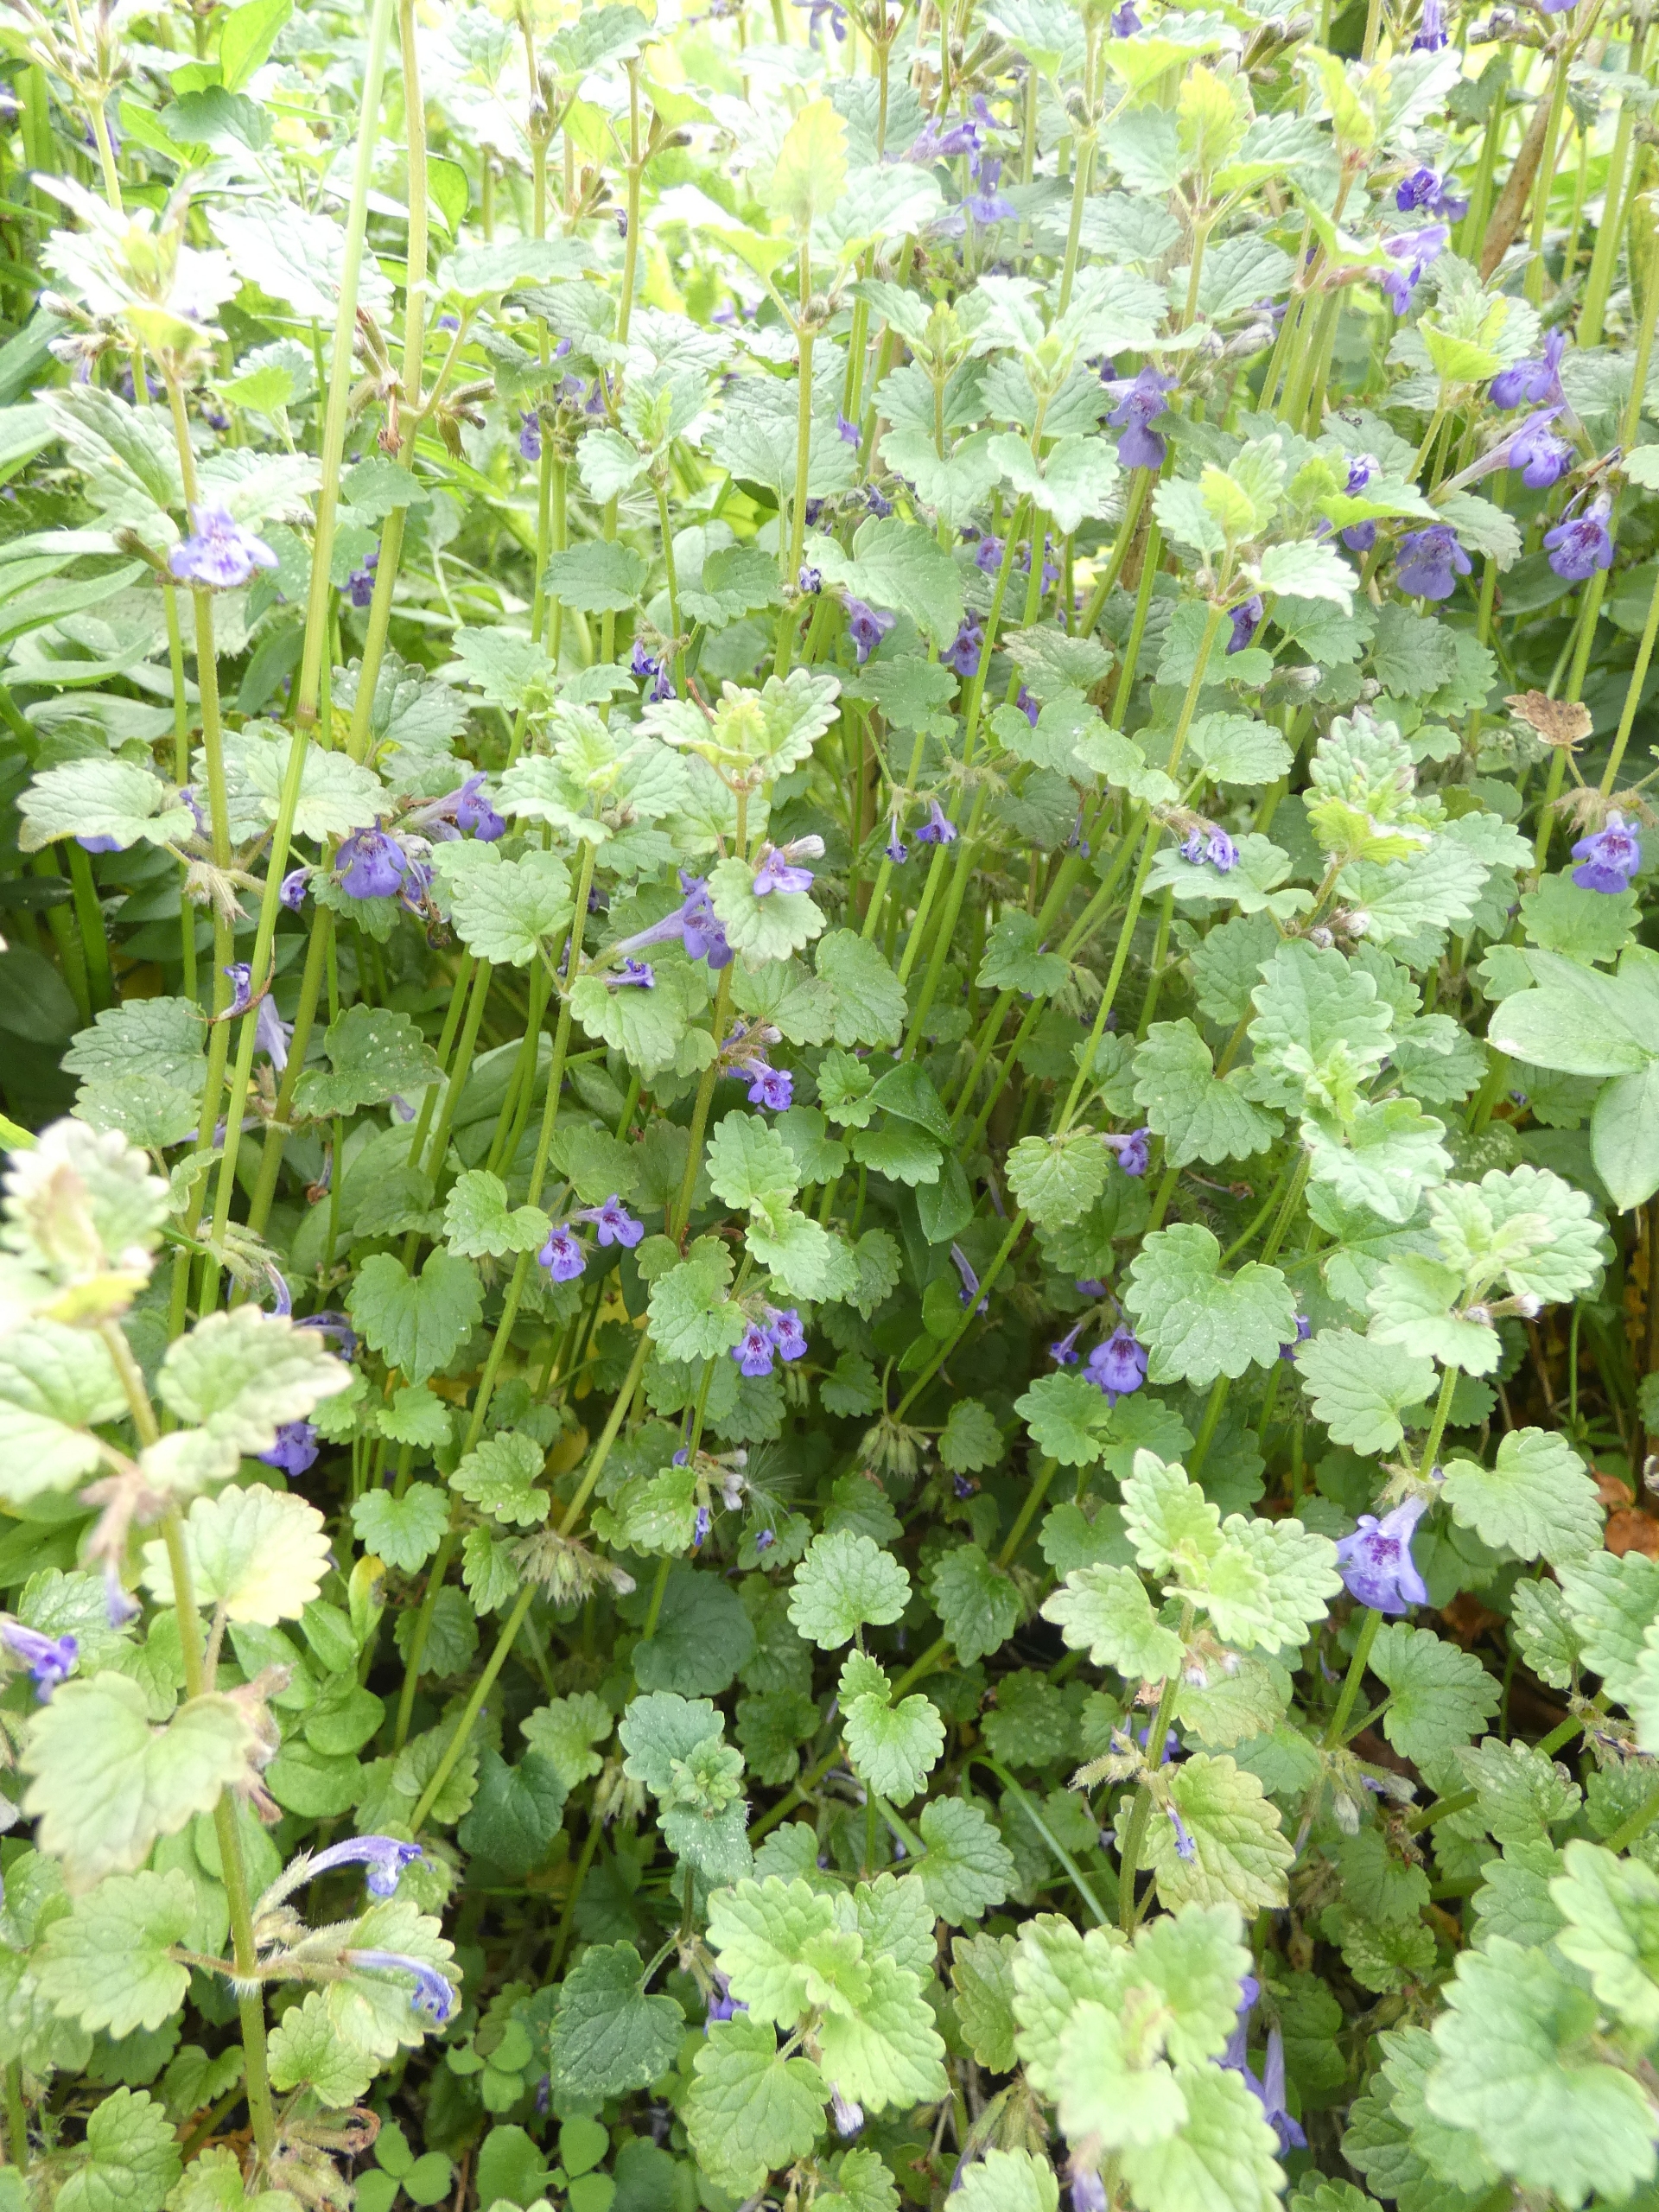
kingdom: Plantae
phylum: Tracheophyta
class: Magnoliopsida
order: Lamiales
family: Lamiaceae
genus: Glechoma
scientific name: Glechoma hederacea
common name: Korsknap
